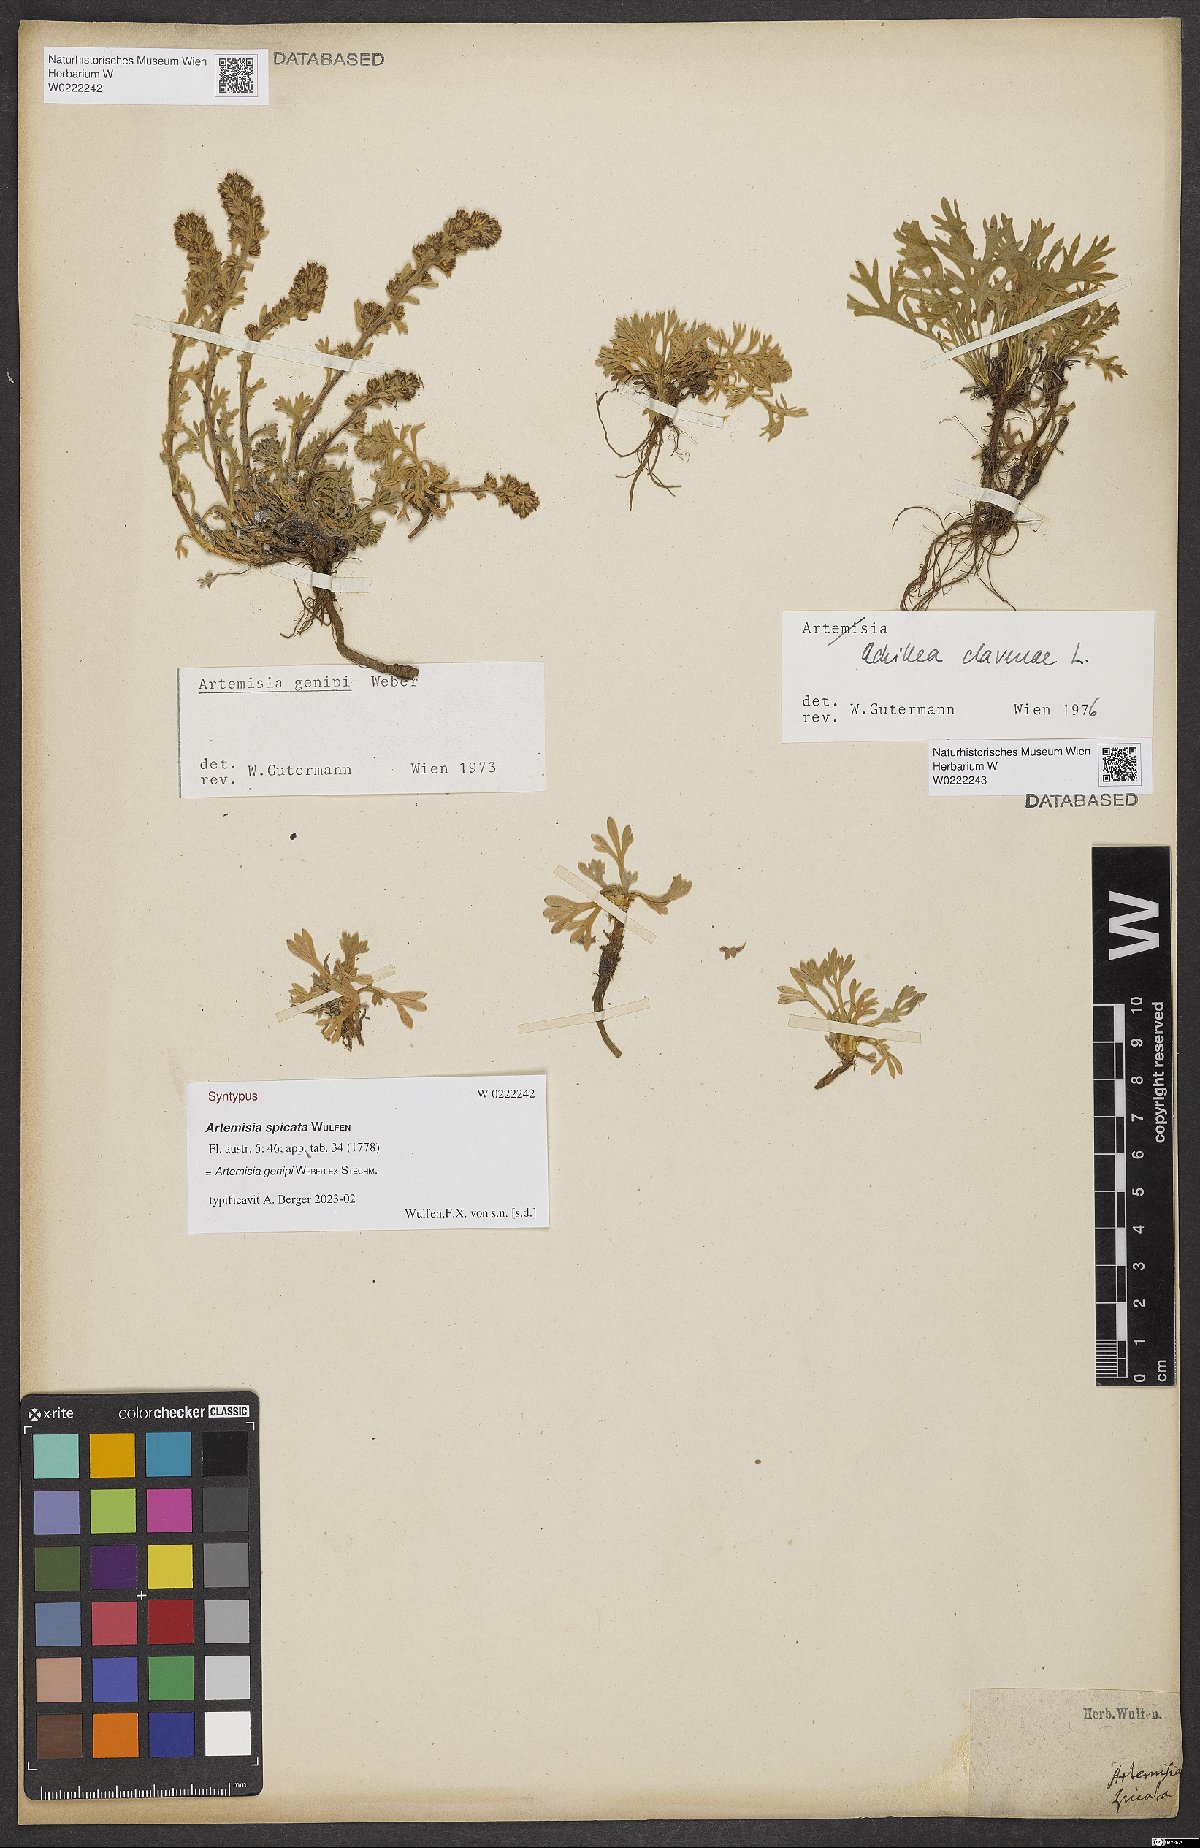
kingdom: Plantae
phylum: Tracheophyta
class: Magnoliopsida
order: Asterales
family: Asteraceae
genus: Achillea
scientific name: Achillea clavennae
